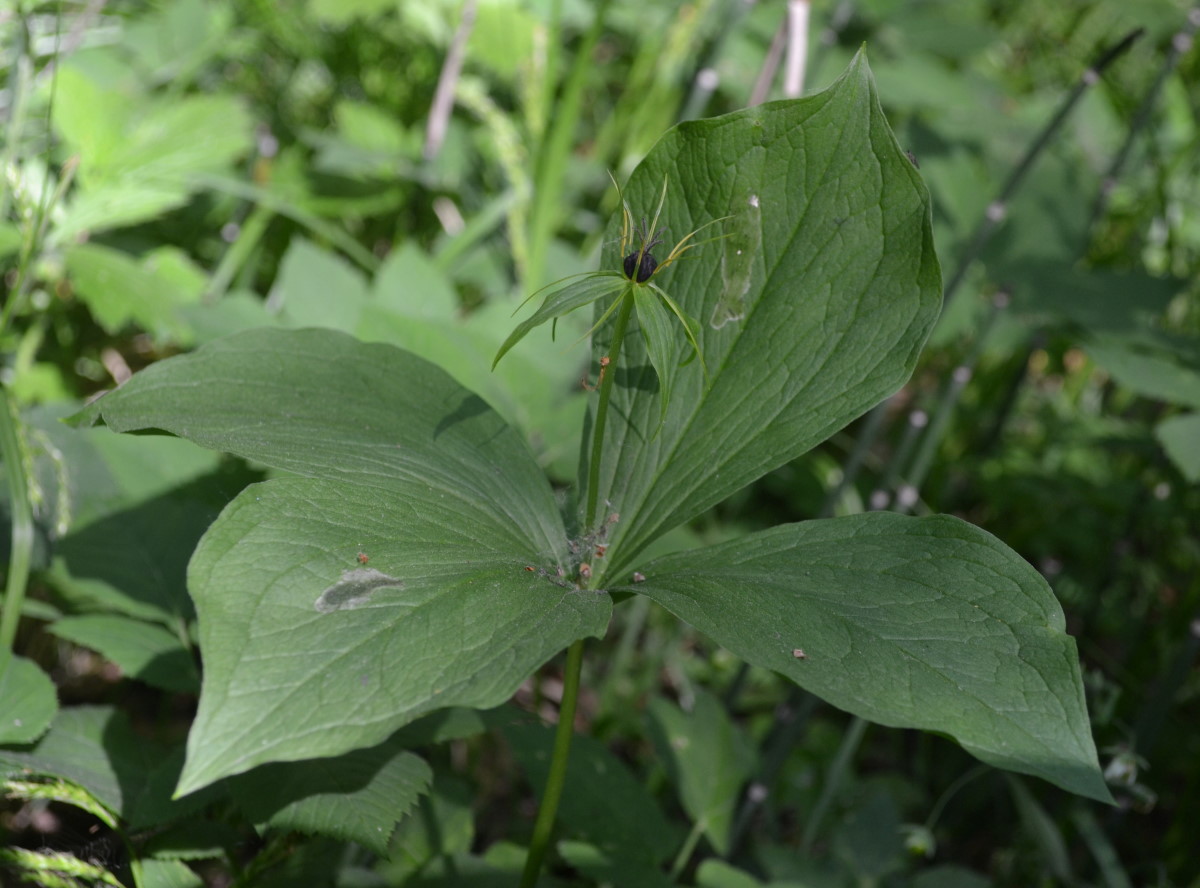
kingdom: Plantae
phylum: Tracheophyta
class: Liliopsida
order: Liliales
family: Melanthiaceae
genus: Paris
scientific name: Paris quadrifolia
